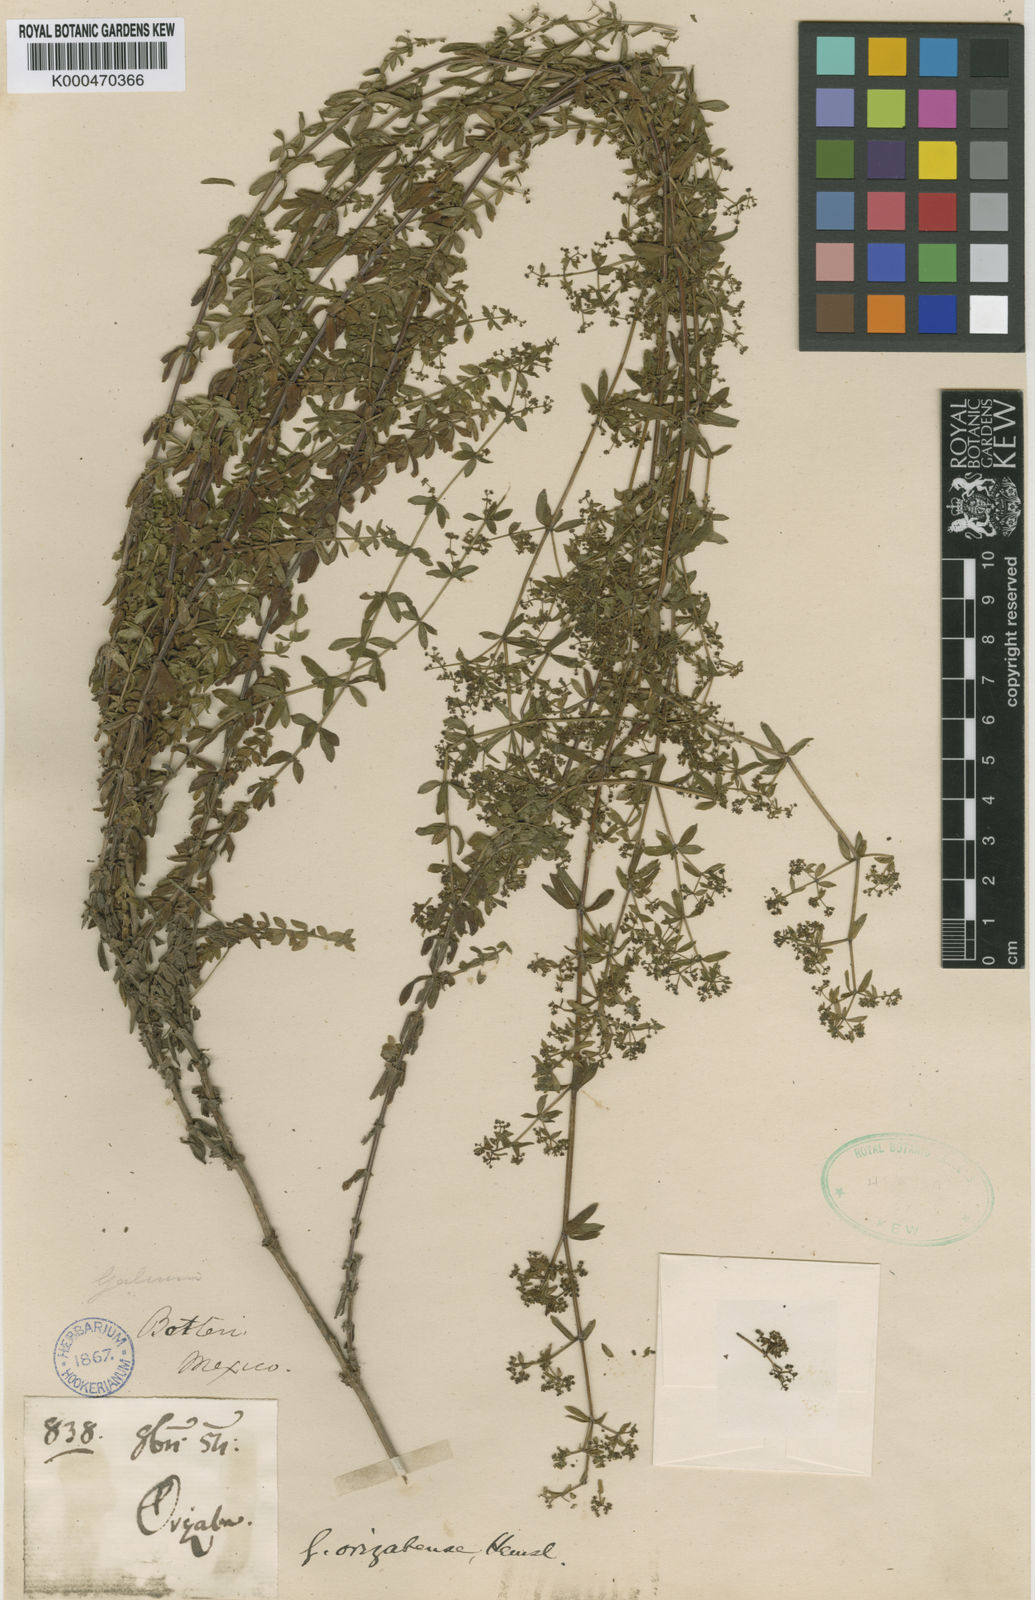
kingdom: Plantae
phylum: Tracheophyta
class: Magnoliopsida
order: Gentianales
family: Rubiaceae
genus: Galium
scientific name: Galium orizabense
